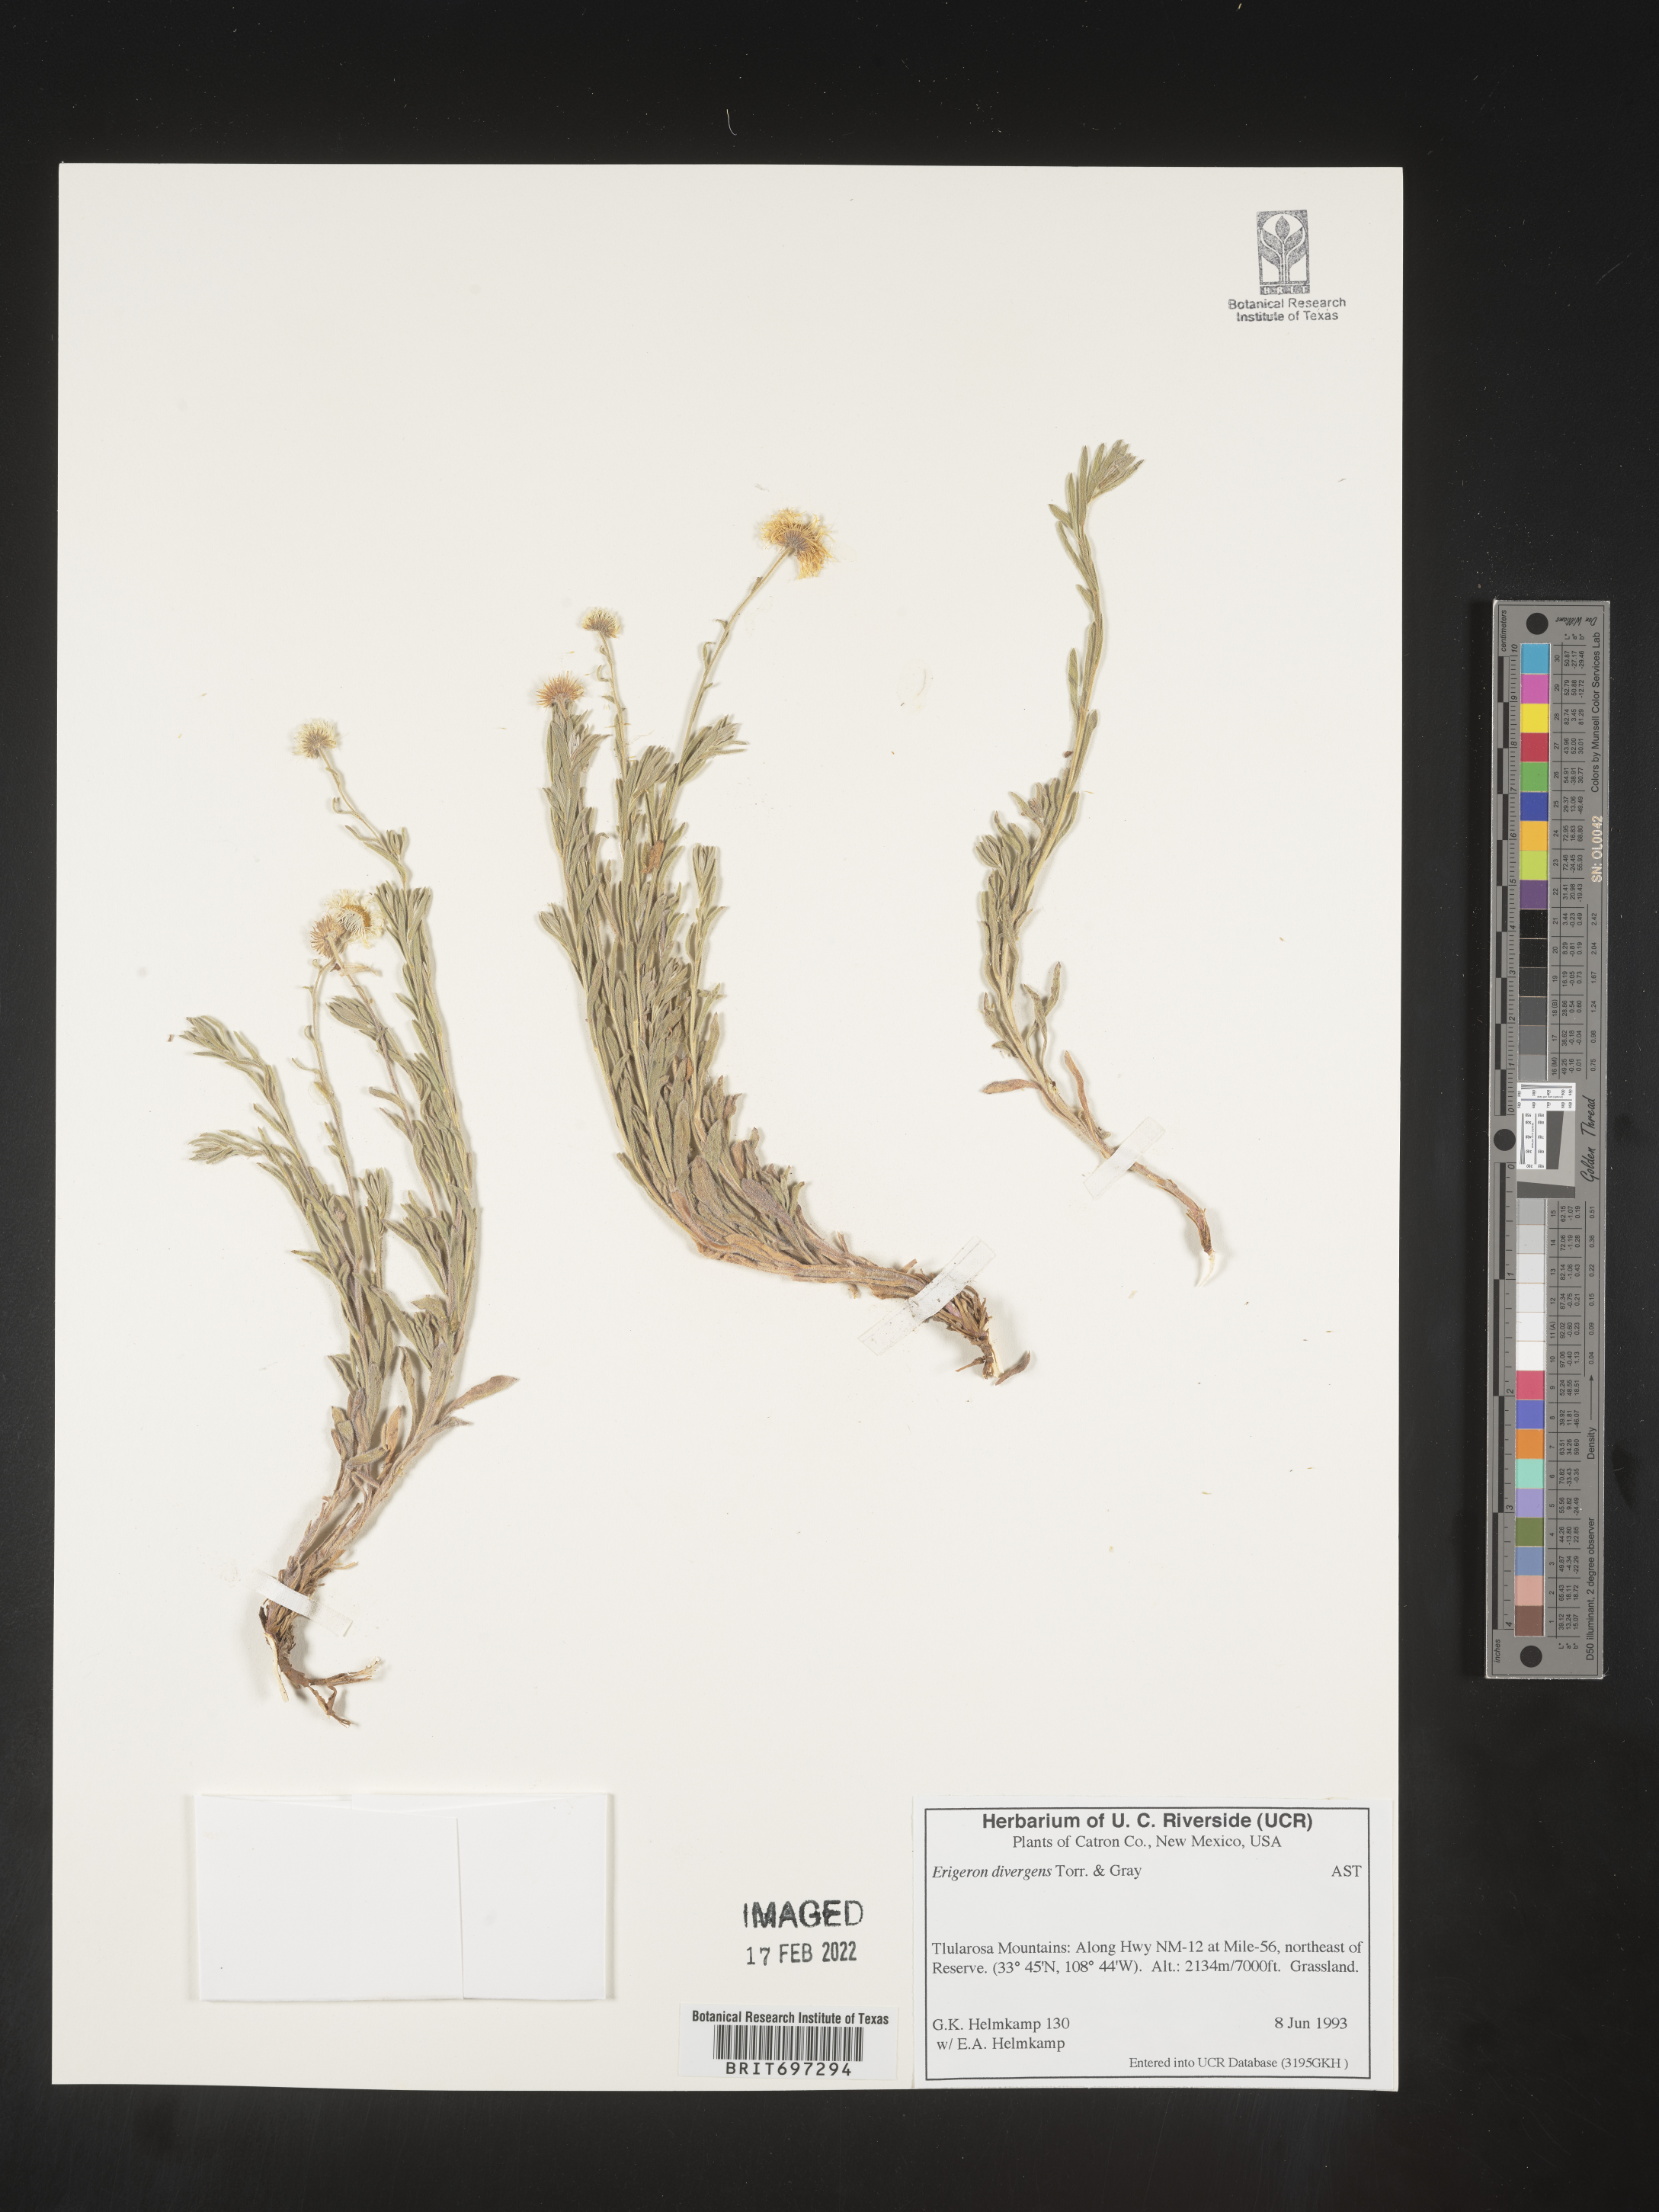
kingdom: Plantae
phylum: Tracheophyta
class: Magnoliopsida
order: Asterales
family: Asteraceae
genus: Erigeron
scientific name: Erigeron divergens
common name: Diffuse fleabane
